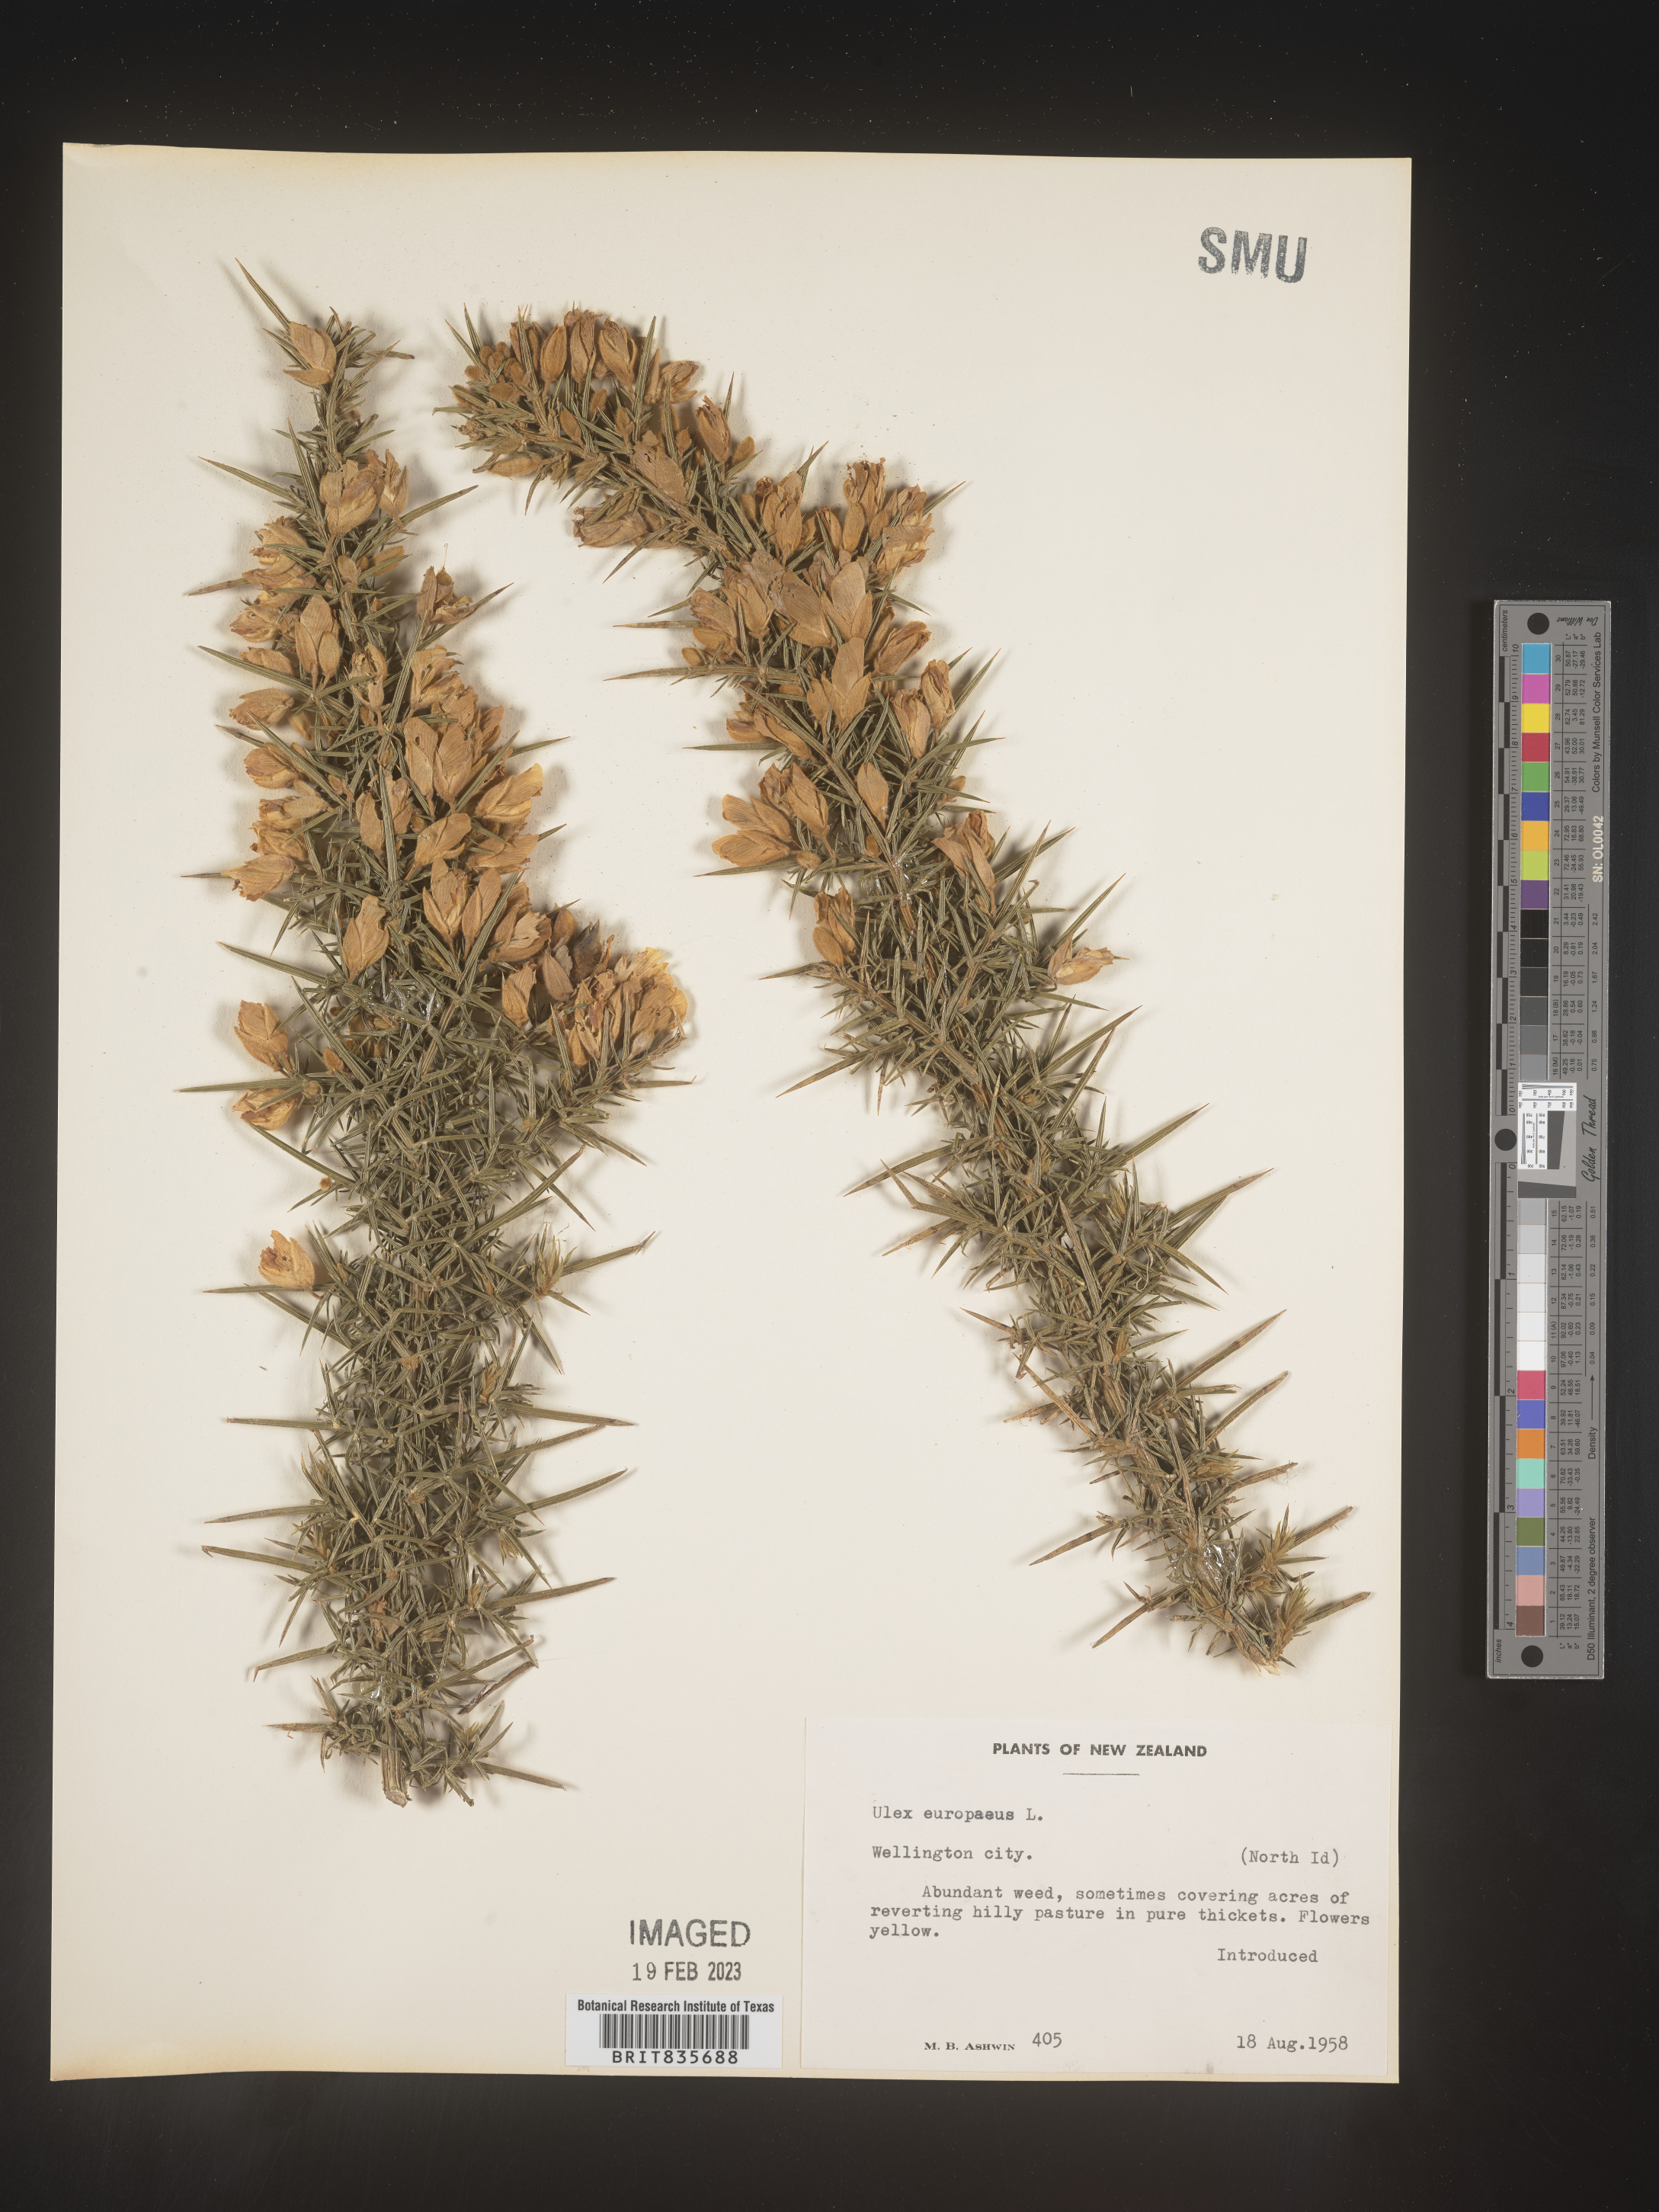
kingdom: Plantae
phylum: Tracheophyta
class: Magnoliopsida
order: Fabales
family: Fabaceae
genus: Ulex
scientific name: Ulex
